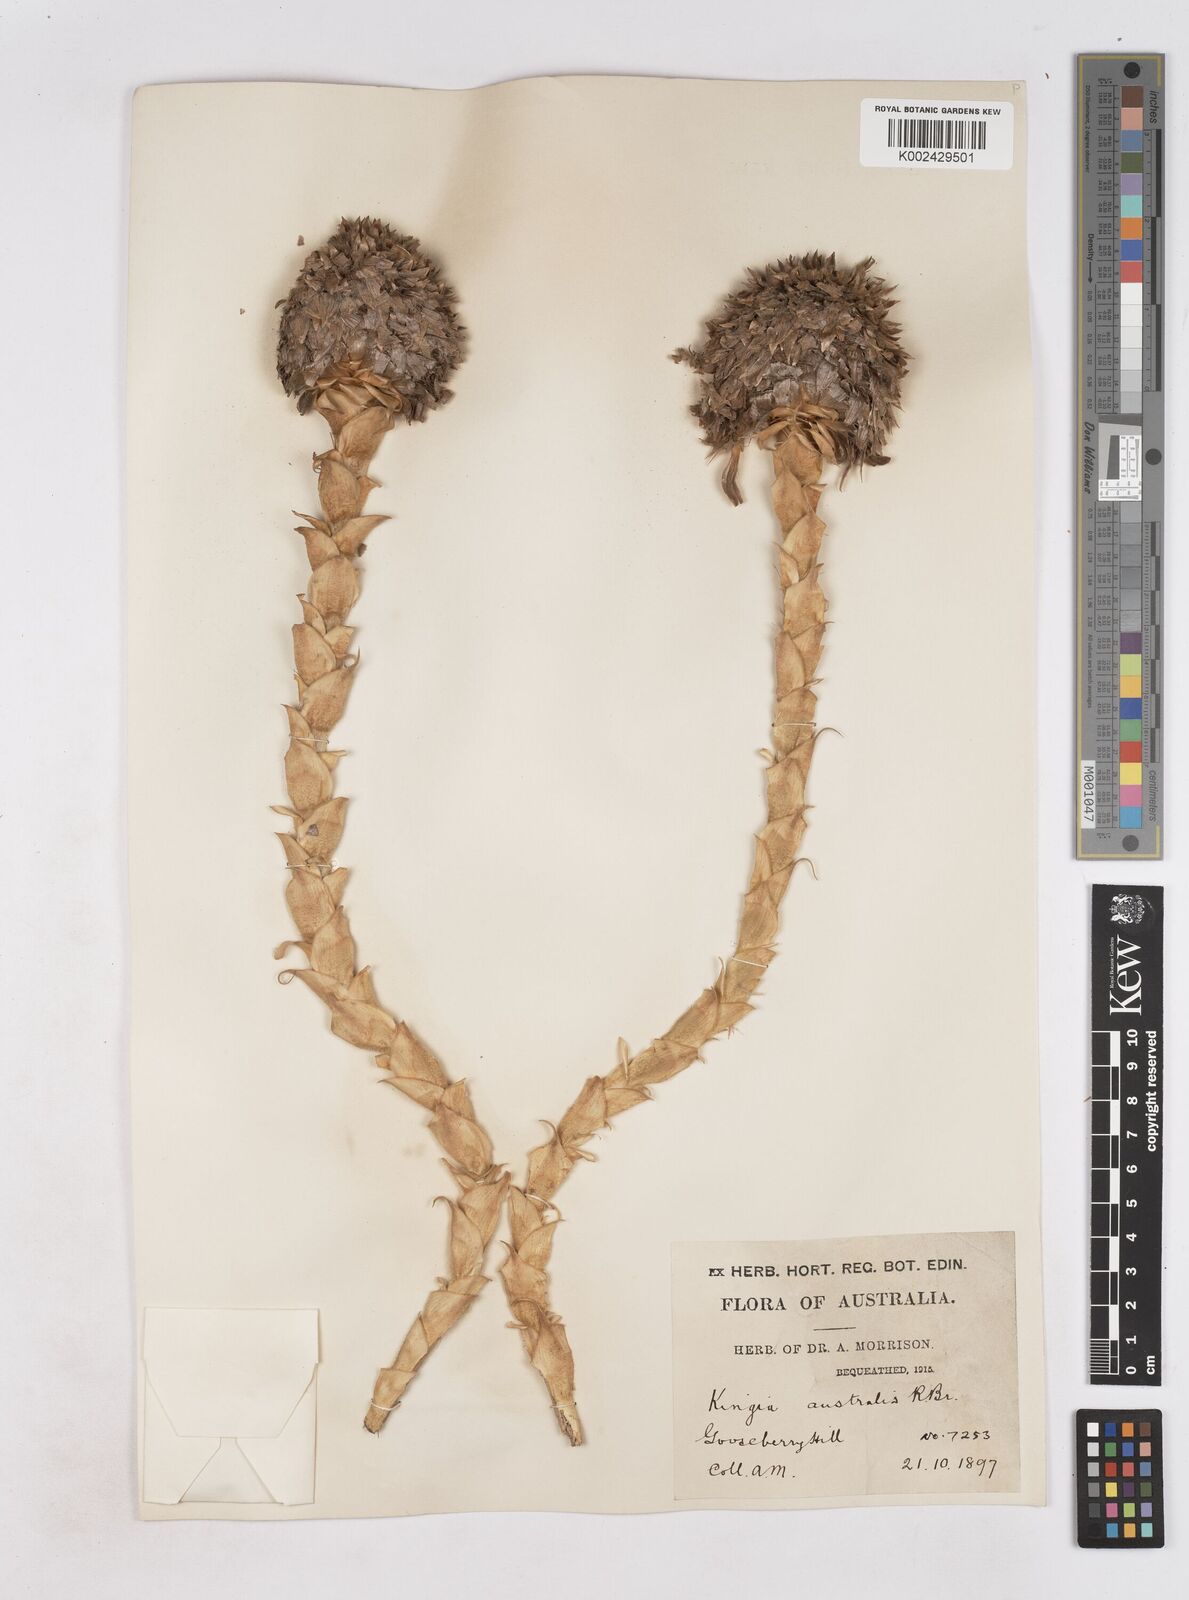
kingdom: Plantae
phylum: Tracheophyta
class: Liliopsida
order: Arecales
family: Dasypogonaceae
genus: Kingia
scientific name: Kingia australis
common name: Black gin
